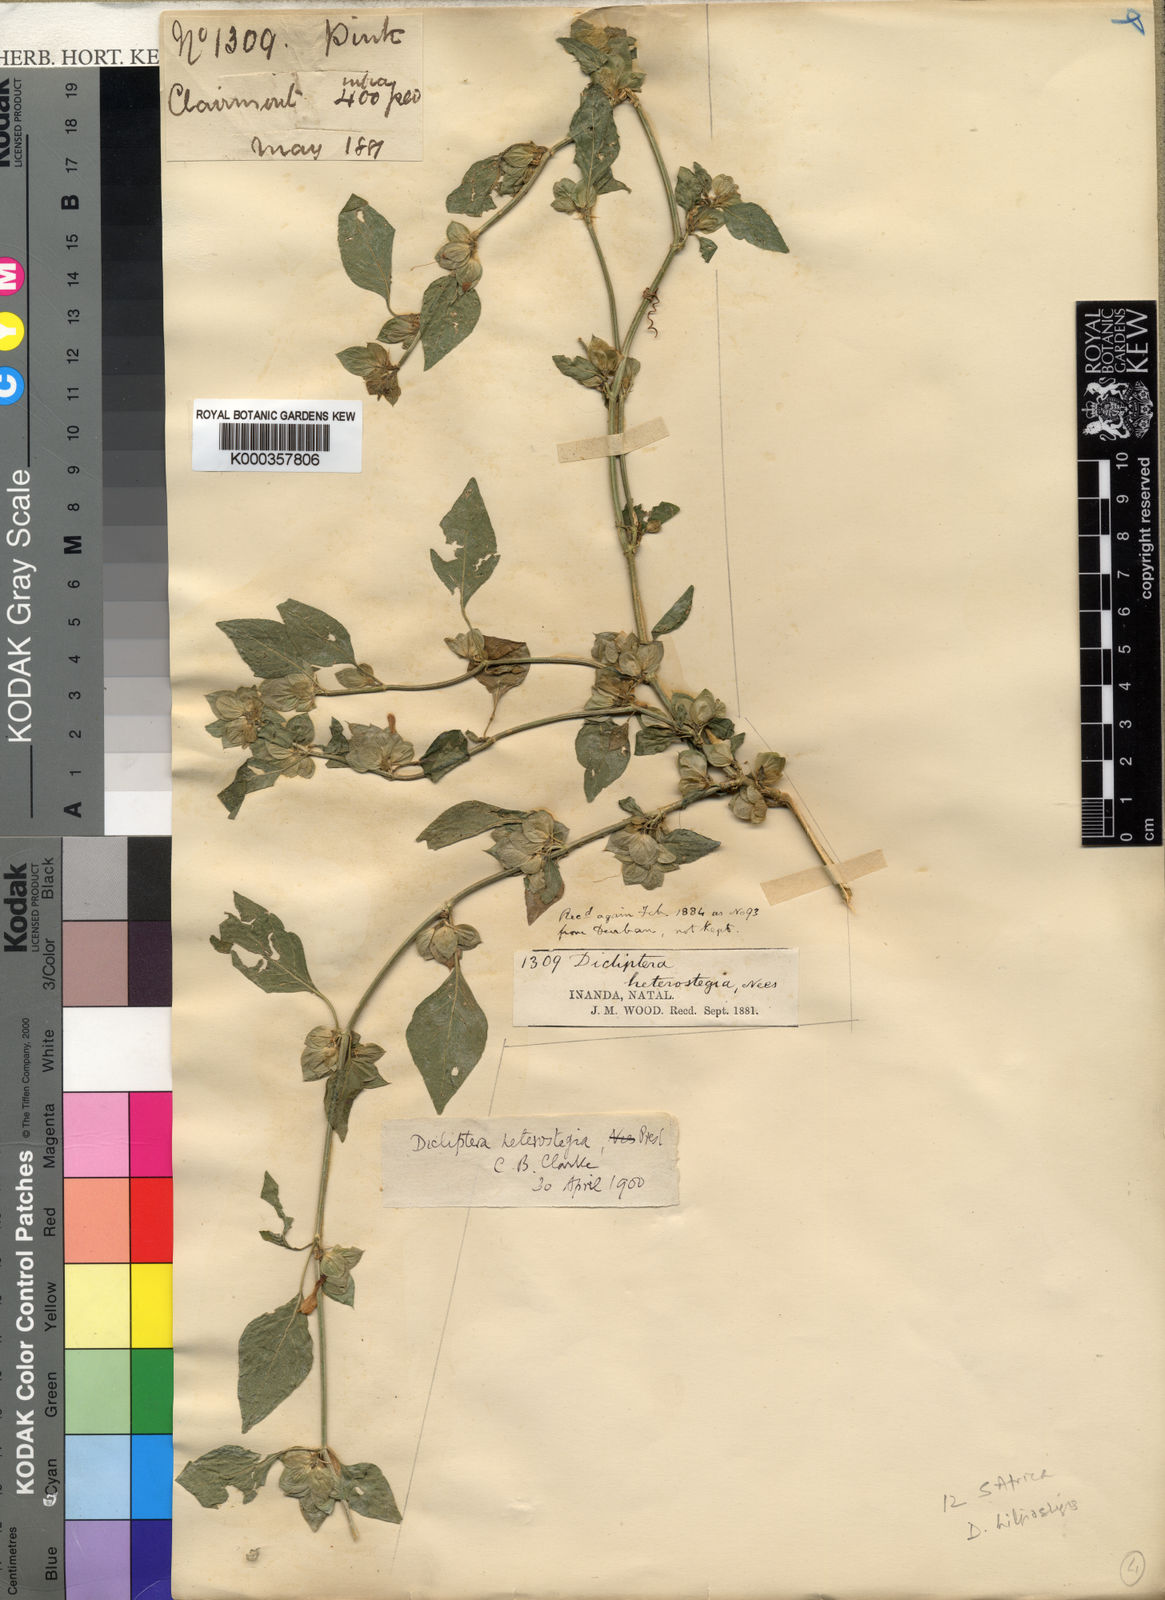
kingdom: Plantae
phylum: Tracheophyta
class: Magnoliopsida
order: Lamiales
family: Acanthaceae
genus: Dicliptera
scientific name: Dicliptera heterostegia
